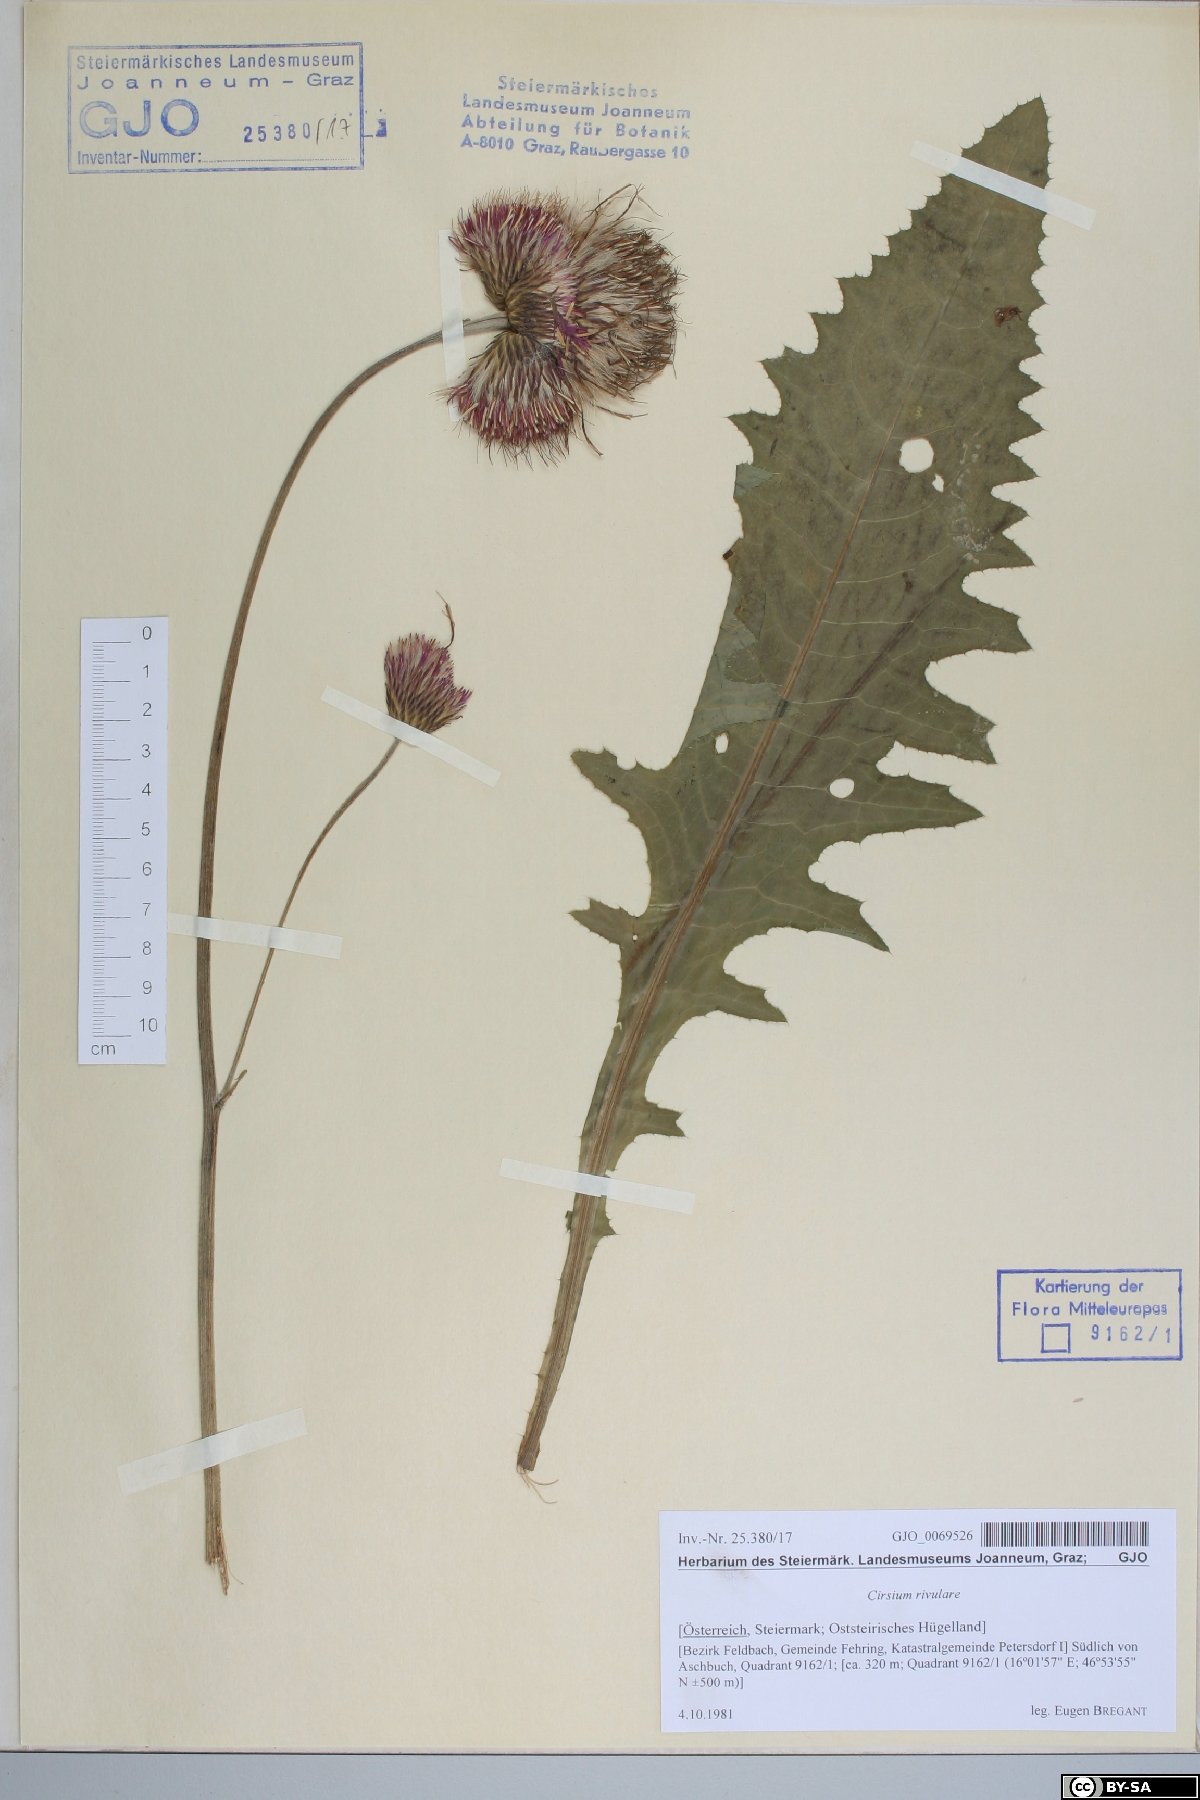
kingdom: Plantae
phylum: Tracheophyta
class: Magnoliopsida
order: Asterales
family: Asteraceae
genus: Cirsium
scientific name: Cirsium rivulare
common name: Brook thistle
